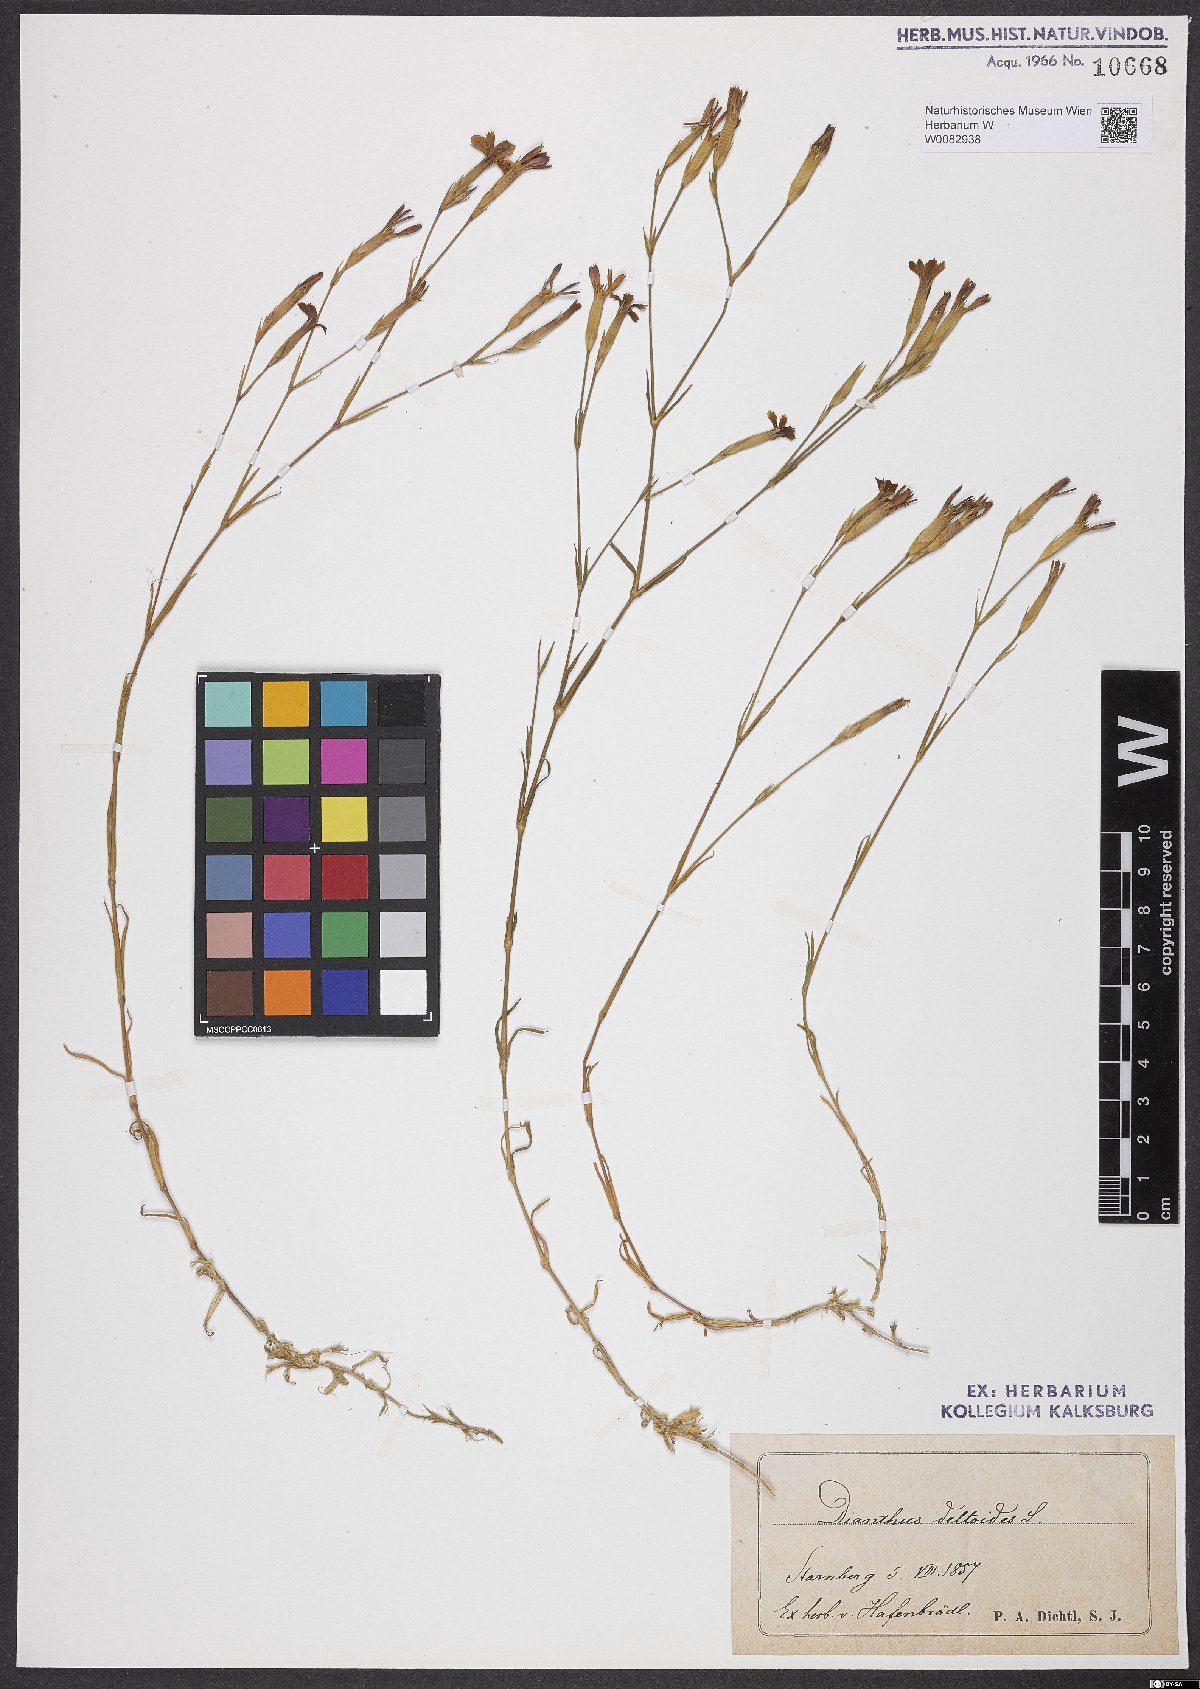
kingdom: Plantae
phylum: Tracheophyta
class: Magnoliopsida
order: Caryophyllales
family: Caryophyllaceae
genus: Dianthus
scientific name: Dianthus deltoides
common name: Maiden pink
